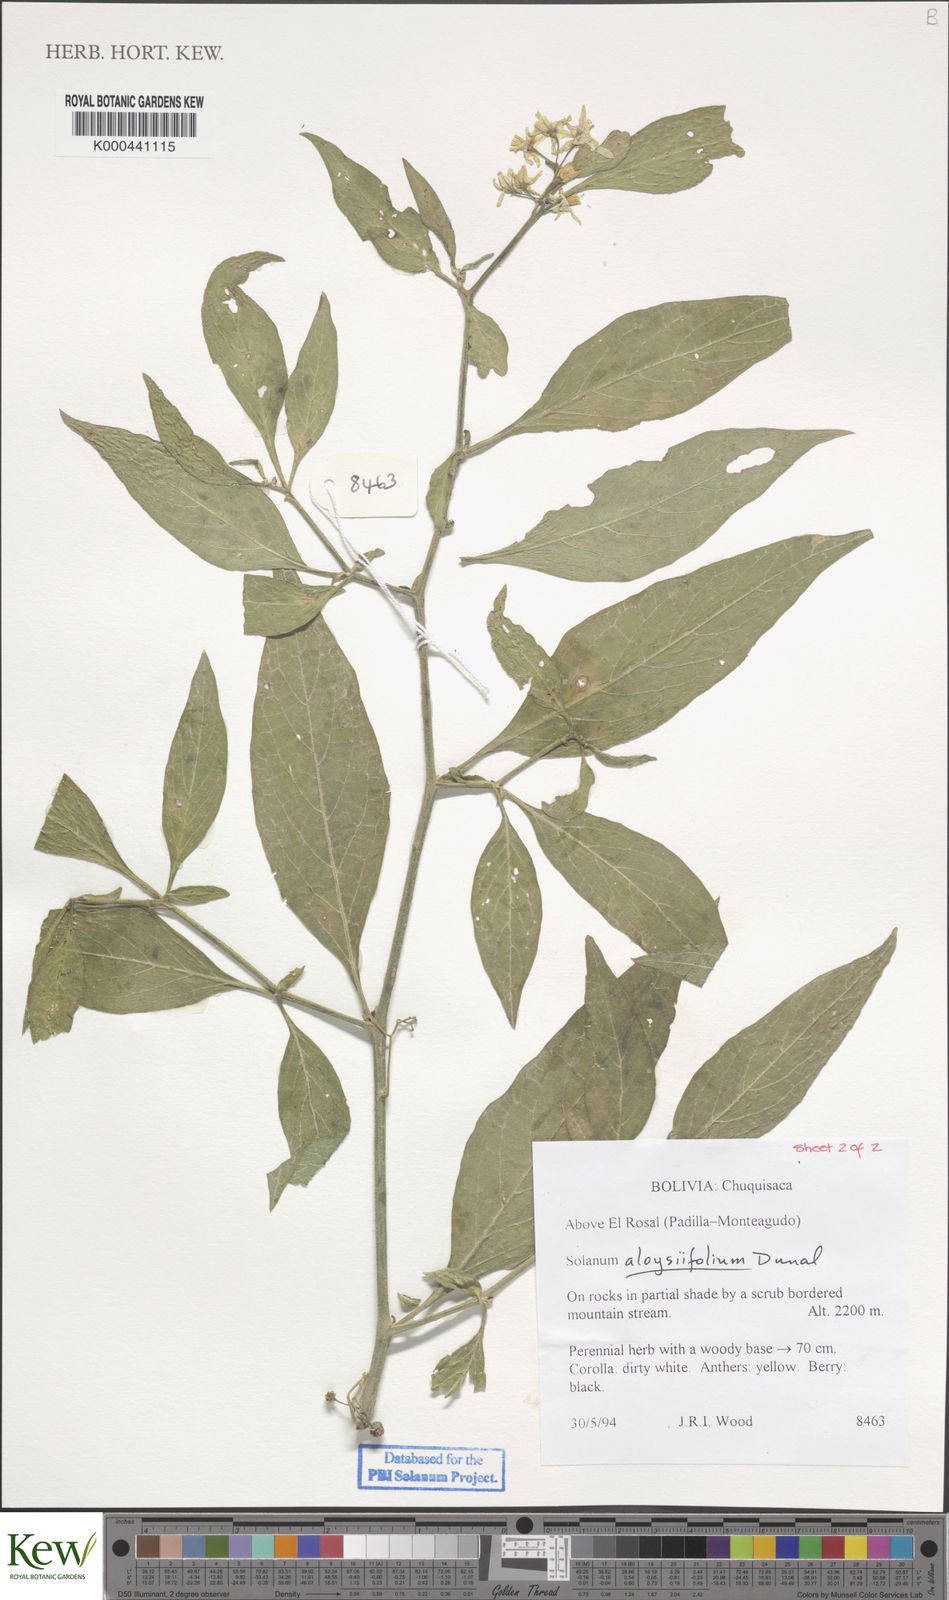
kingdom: Plantae
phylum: Tracheophyta
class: Magnoliopsida
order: Solanales
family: Solanaceae
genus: Solanum
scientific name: Solanum aloysiifolium
